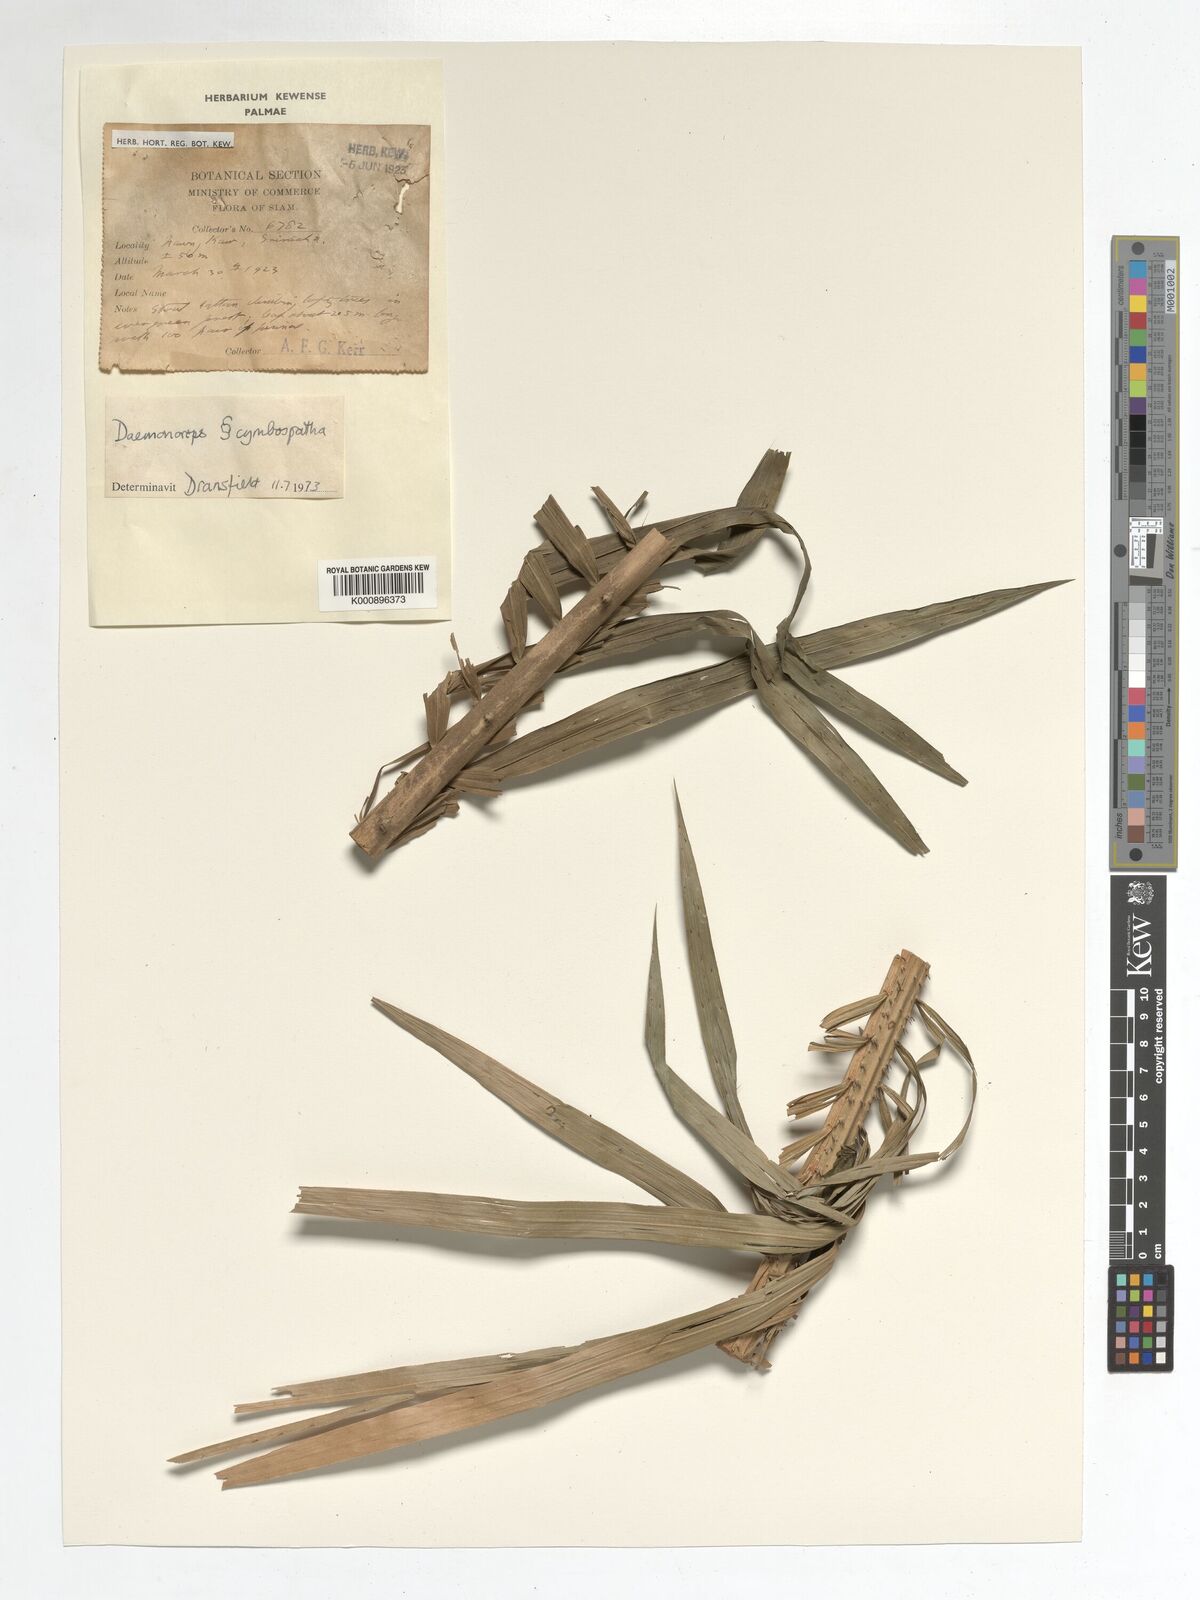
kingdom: Plantae
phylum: Tracheophyta
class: Liliopsida
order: Arecales
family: Arecaceae
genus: Daemonorops
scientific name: Daemonorops
